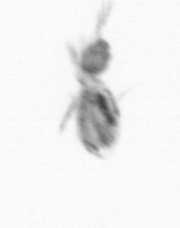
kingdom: Animalia
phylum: Arthropoda
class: Copepoda
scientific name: Copepoda
